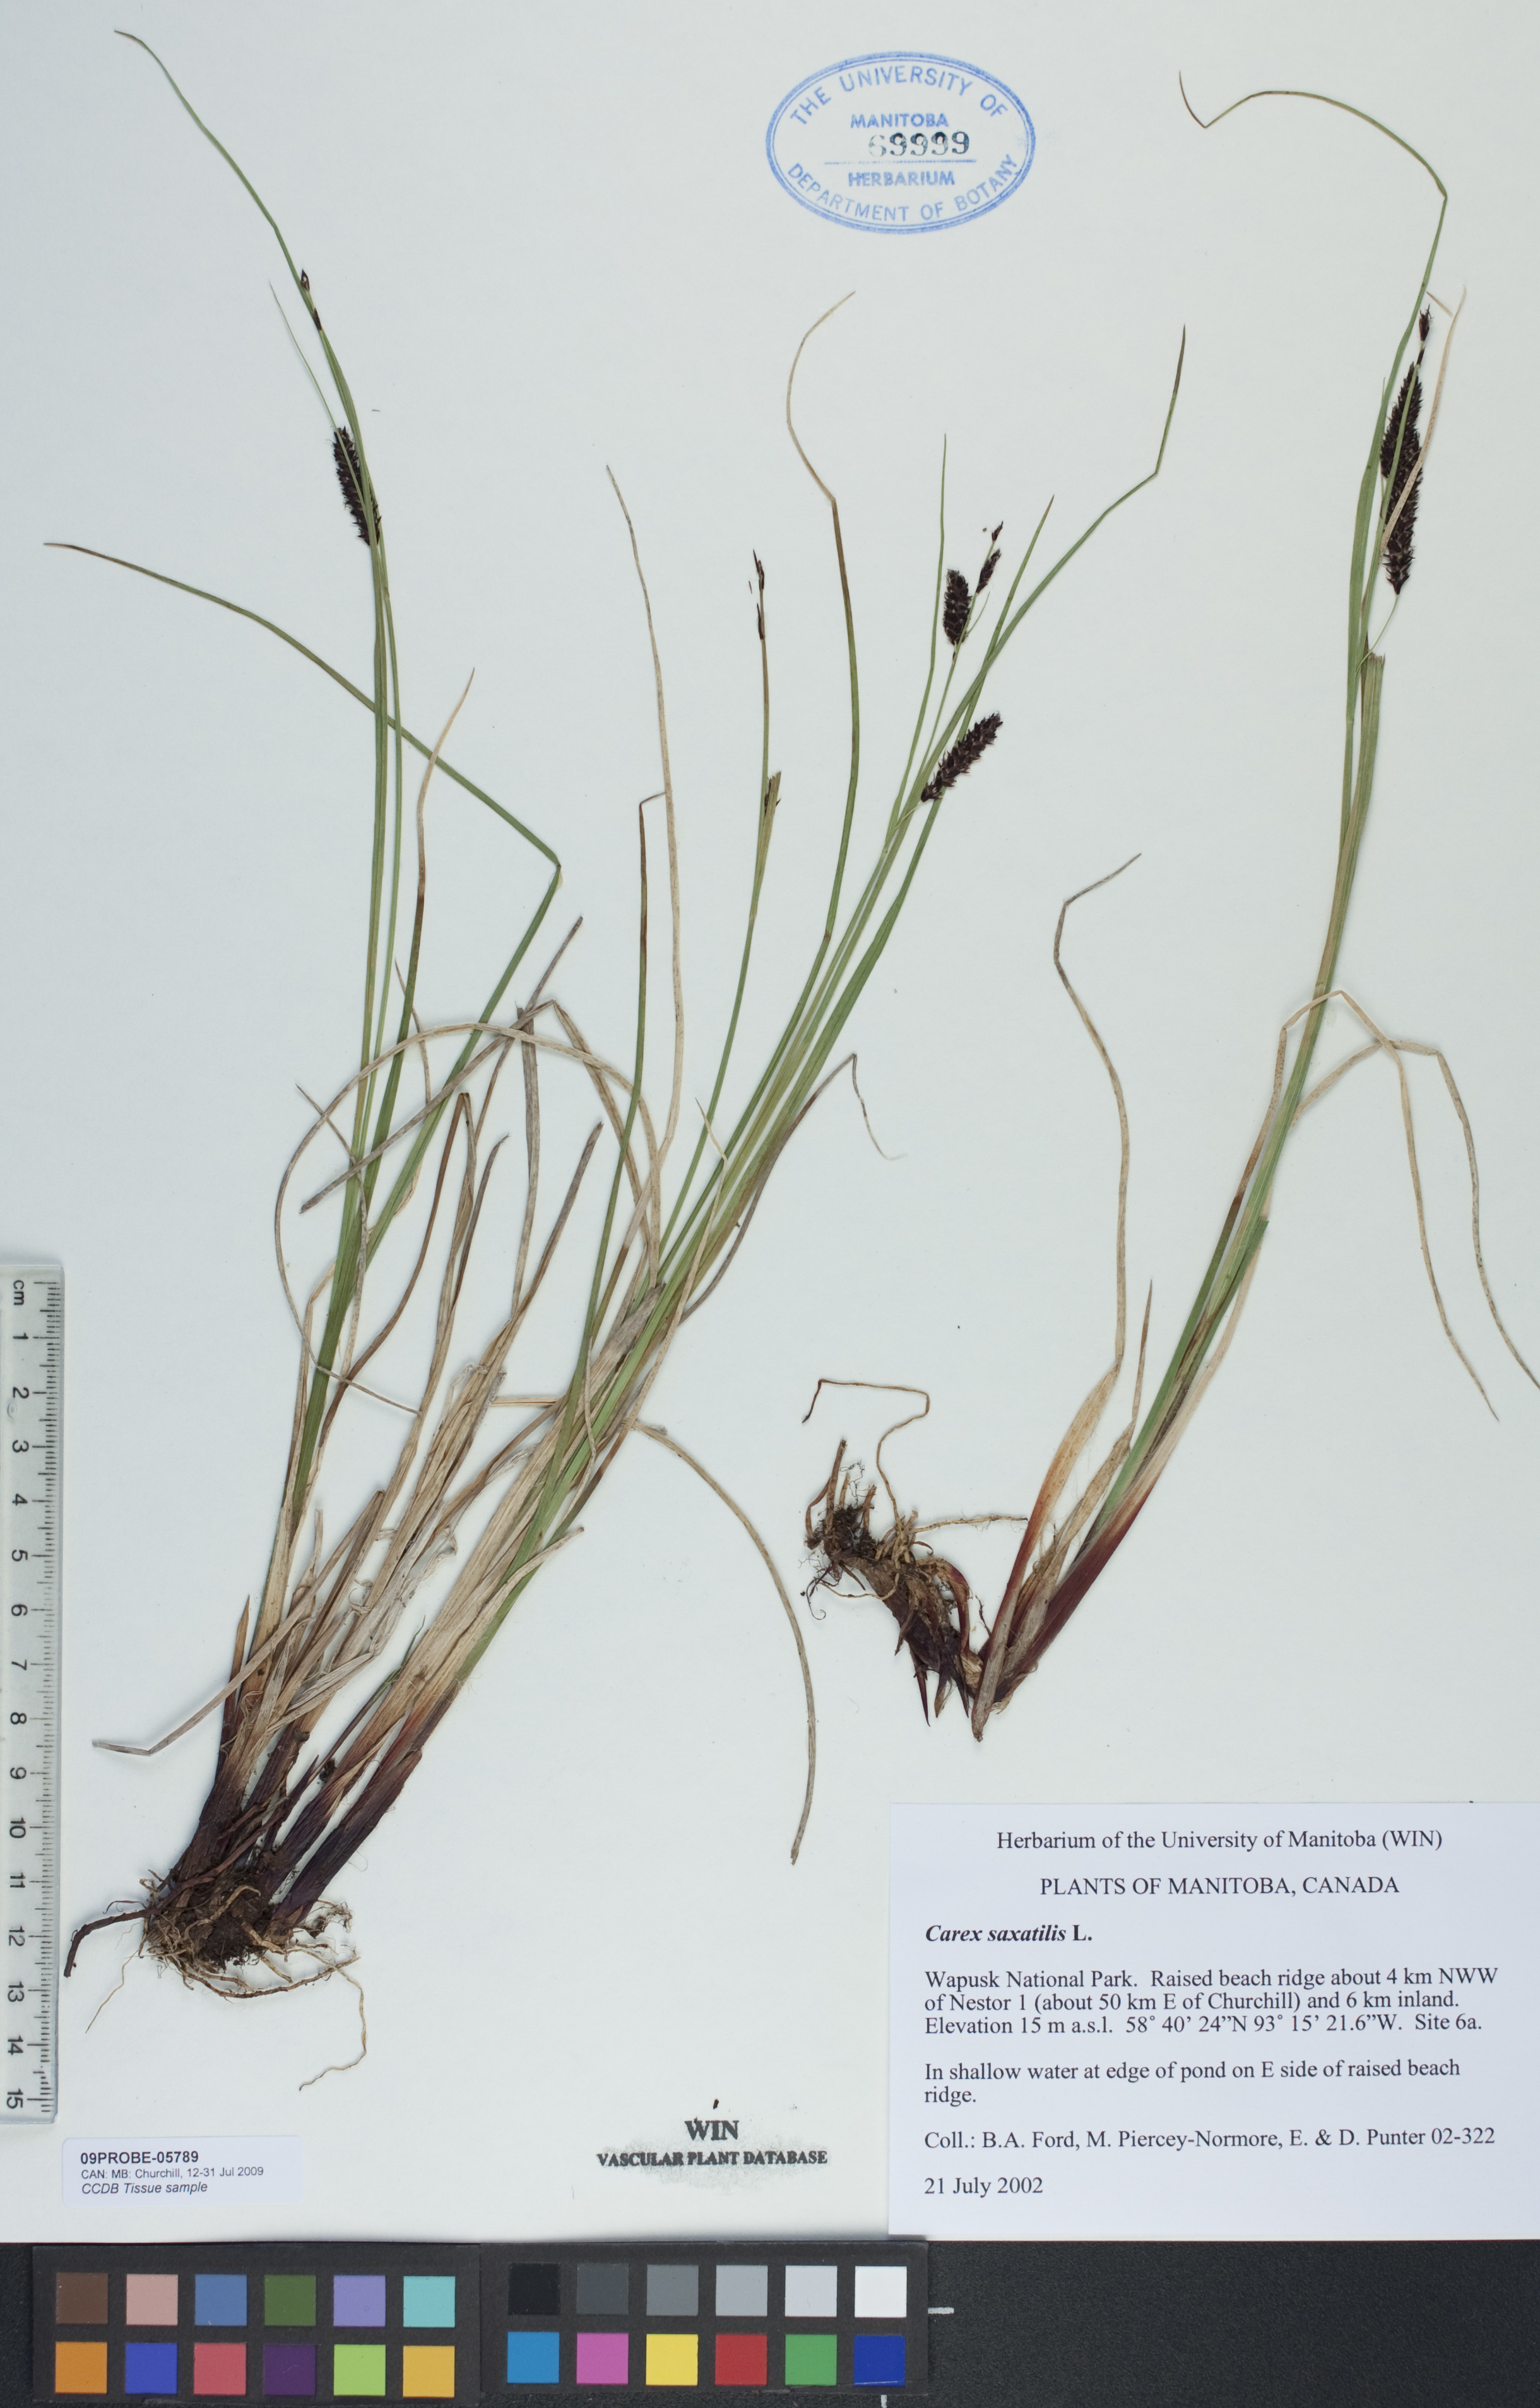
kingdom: Plantae
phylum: Tracheophyta
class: Liliopsida
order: Poales
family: Cyperaceae
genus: Carex
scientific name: Carex saxatilis
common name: Russet sedge
